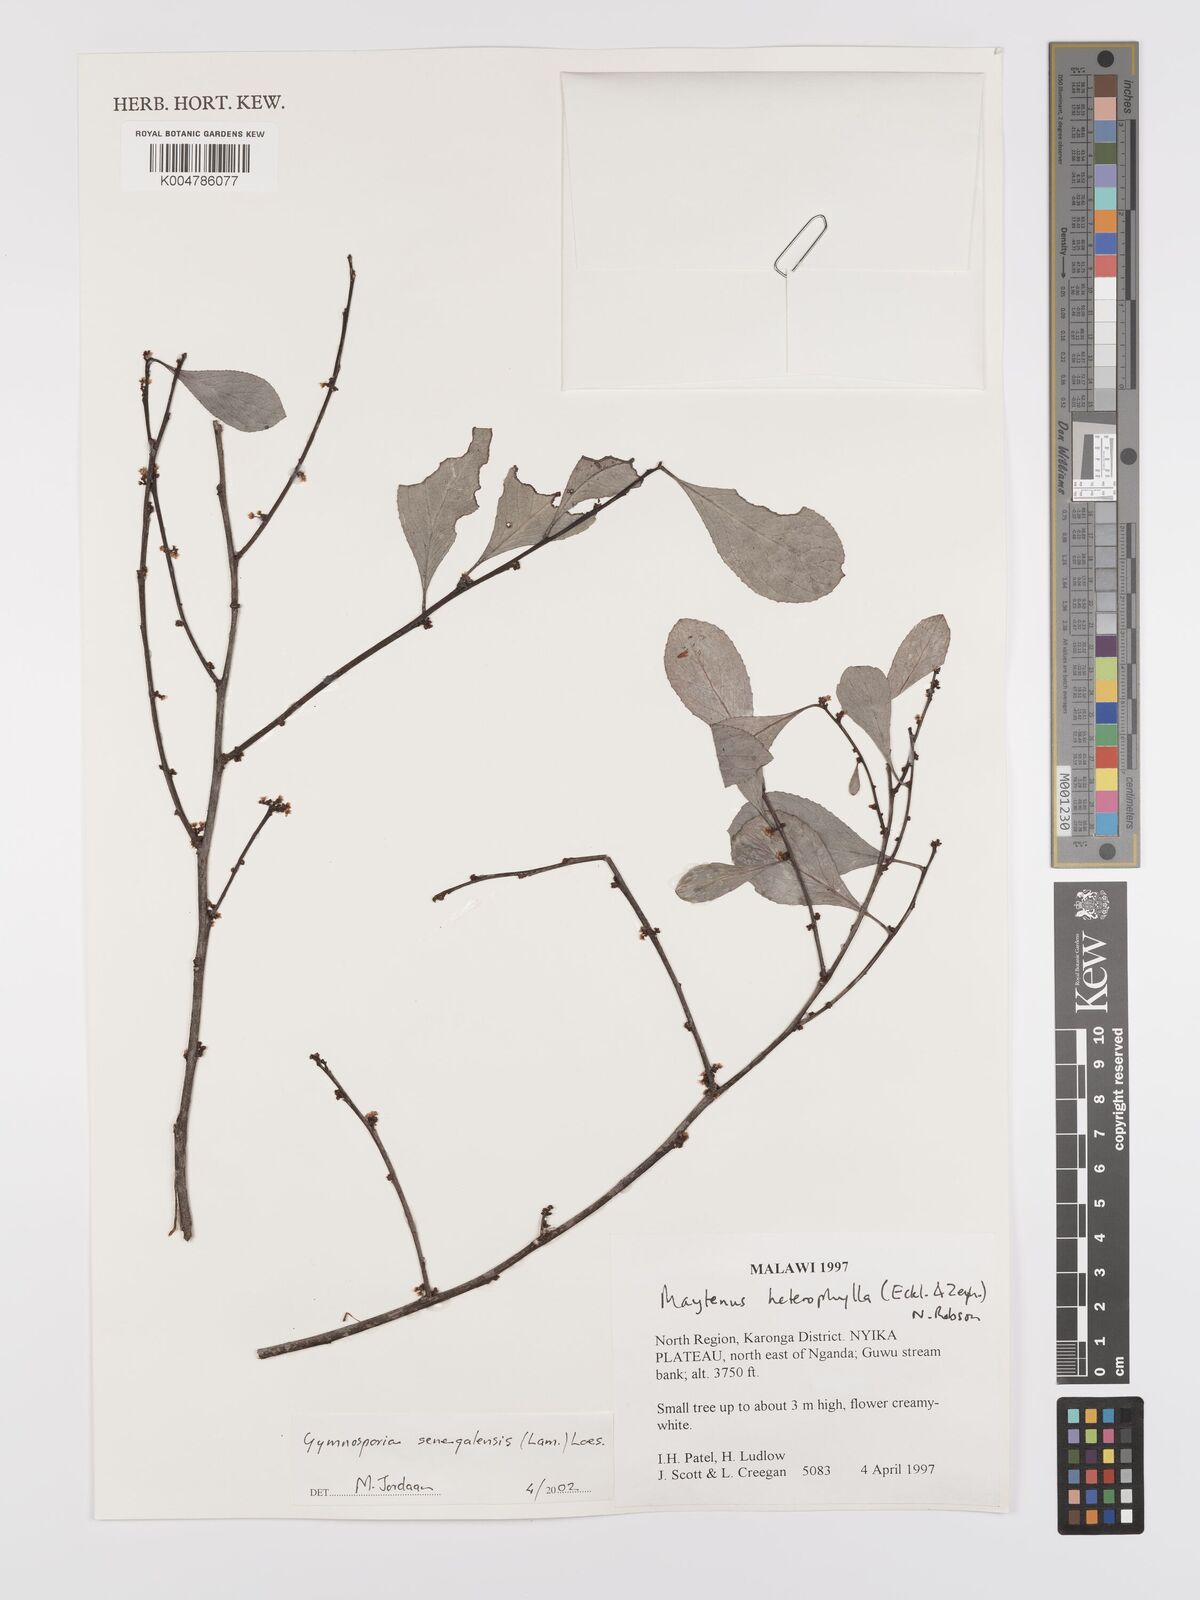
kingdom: Plantae
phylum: Tracheophyta
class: Magnoliopsida
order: Celastrales
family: Celastraceae
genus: Gymnosporia
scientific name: Gymnosporia senegalensis
